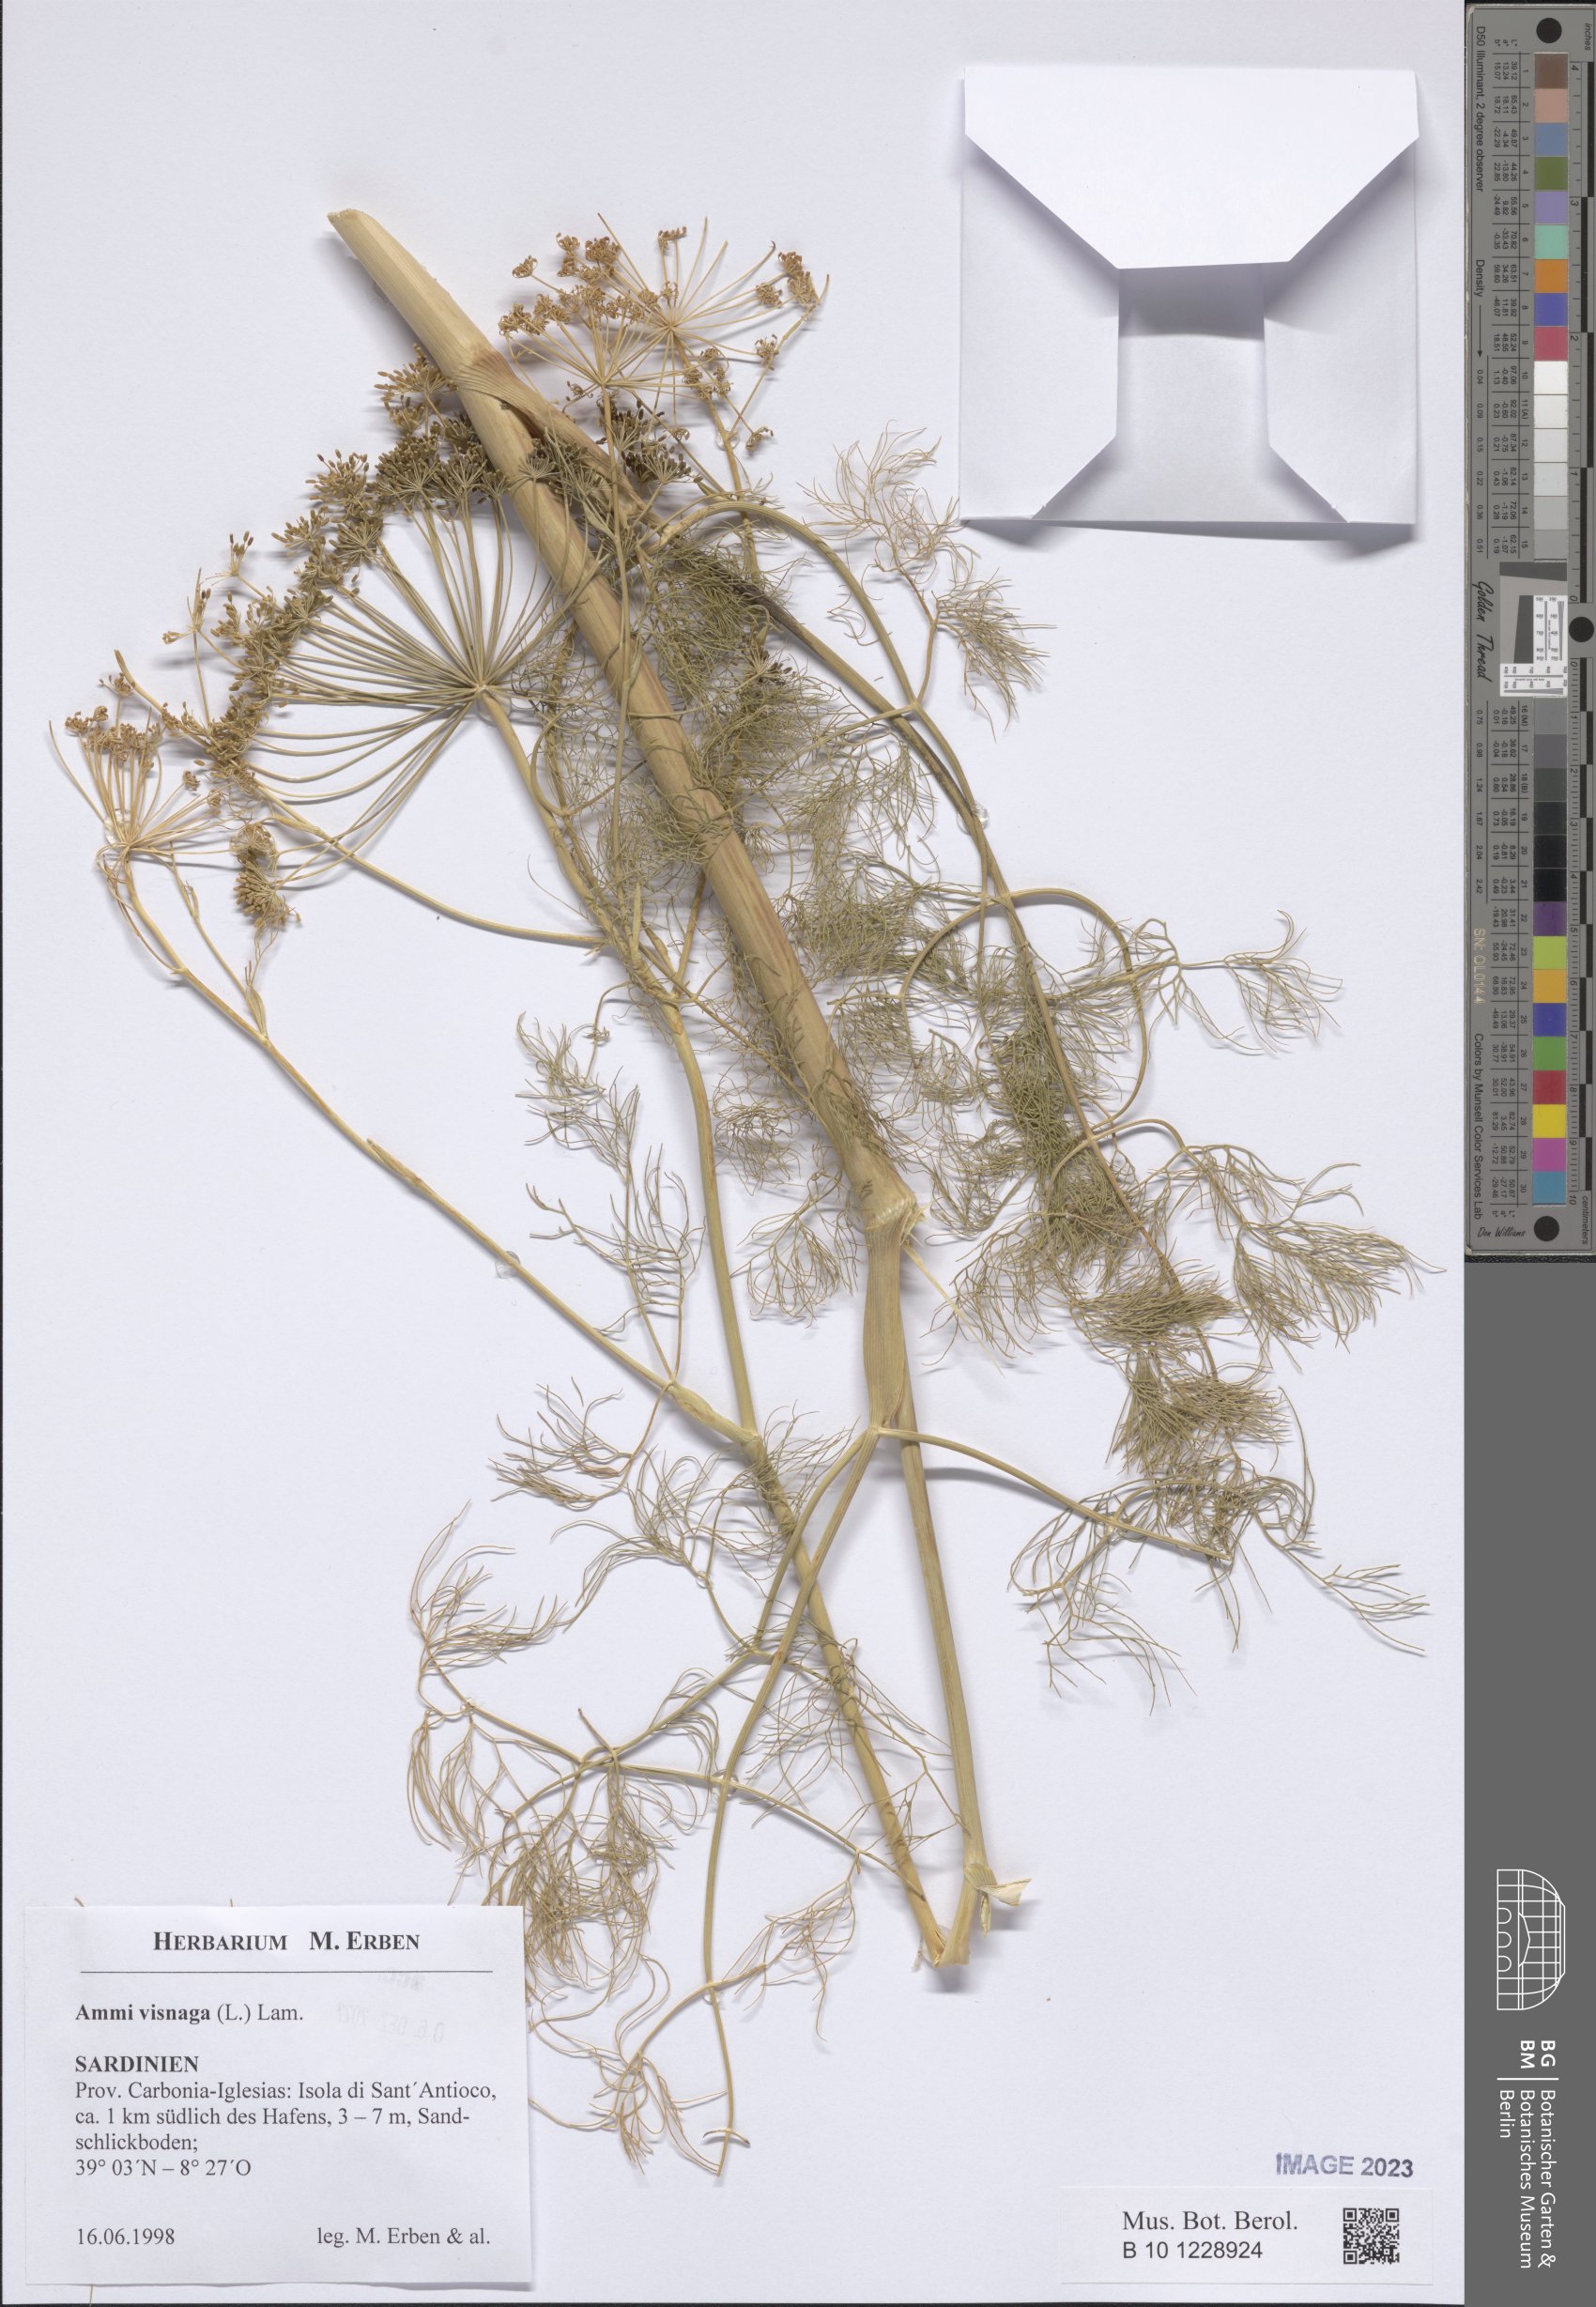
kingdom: Plantae
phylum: Tracheophyta
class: Magnoliopsida
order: Apiales
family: Apiaceae
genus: Visnaga
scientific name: Visnaga daucoides
